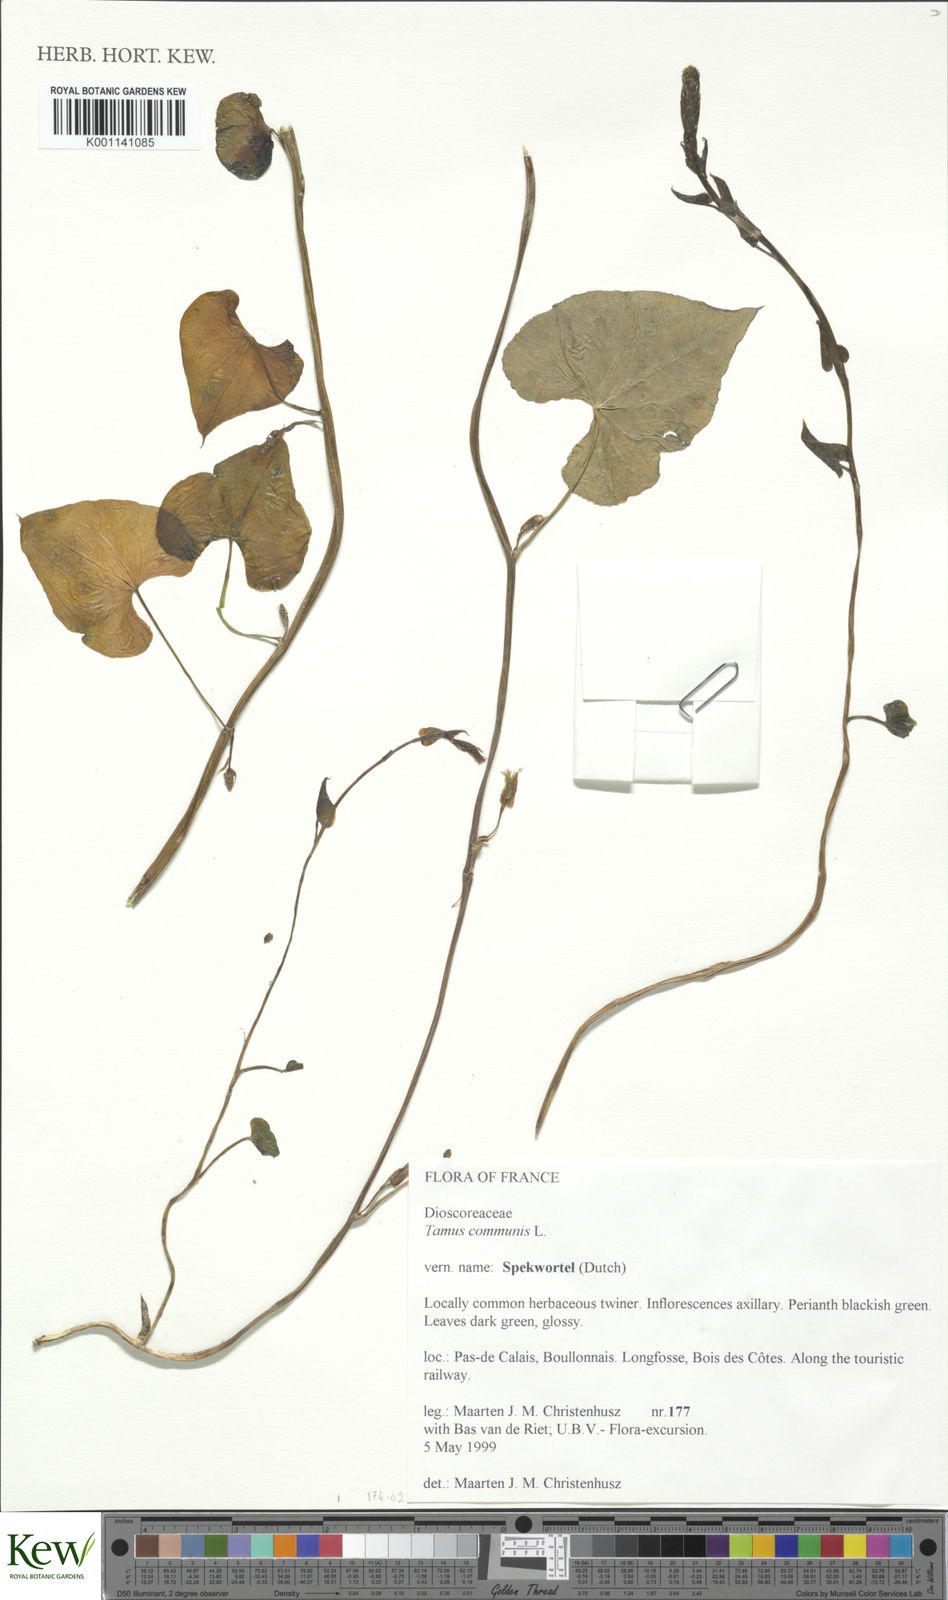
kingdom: Plantae
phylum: Tracheophyta
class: Liliopsida
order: Dioscoreales
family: Dioscoreaceae
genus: Dioscorea
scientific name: Dioscorea communis
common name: Black-bindweed
